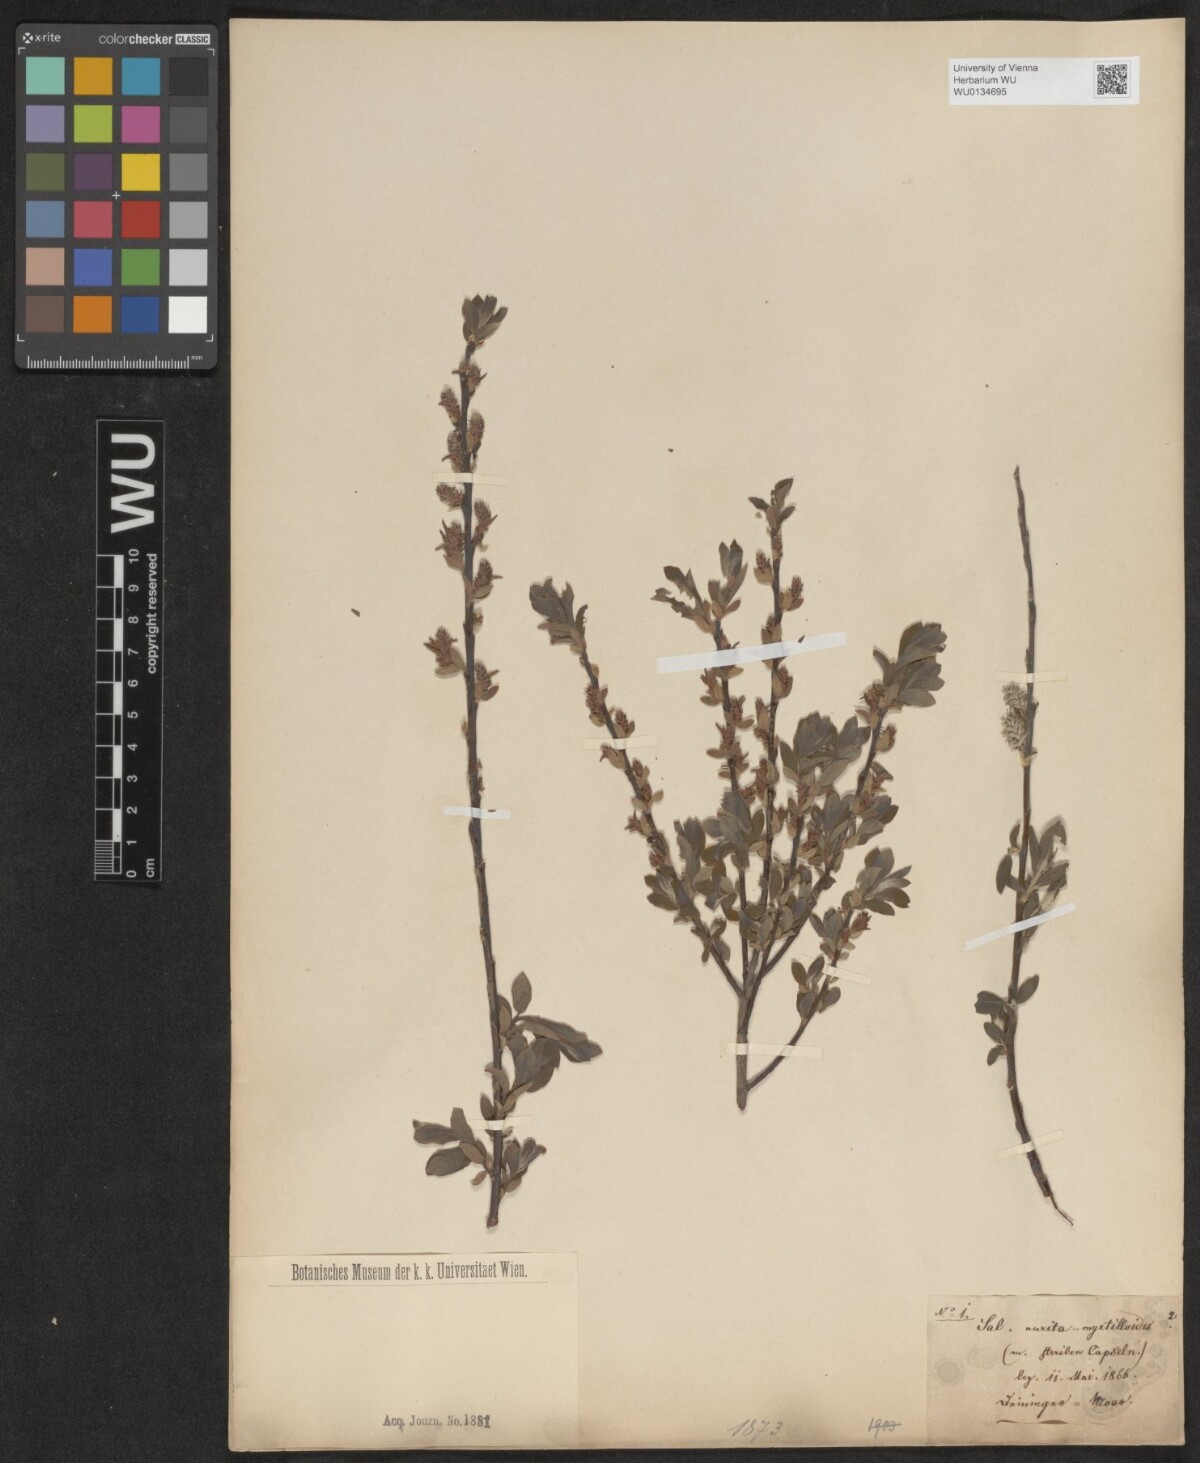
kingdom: Plantae
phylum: Tracheophyta
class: Magnoliopsida
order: Malpighiales
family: Salicaceae
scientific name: Salicaceae
